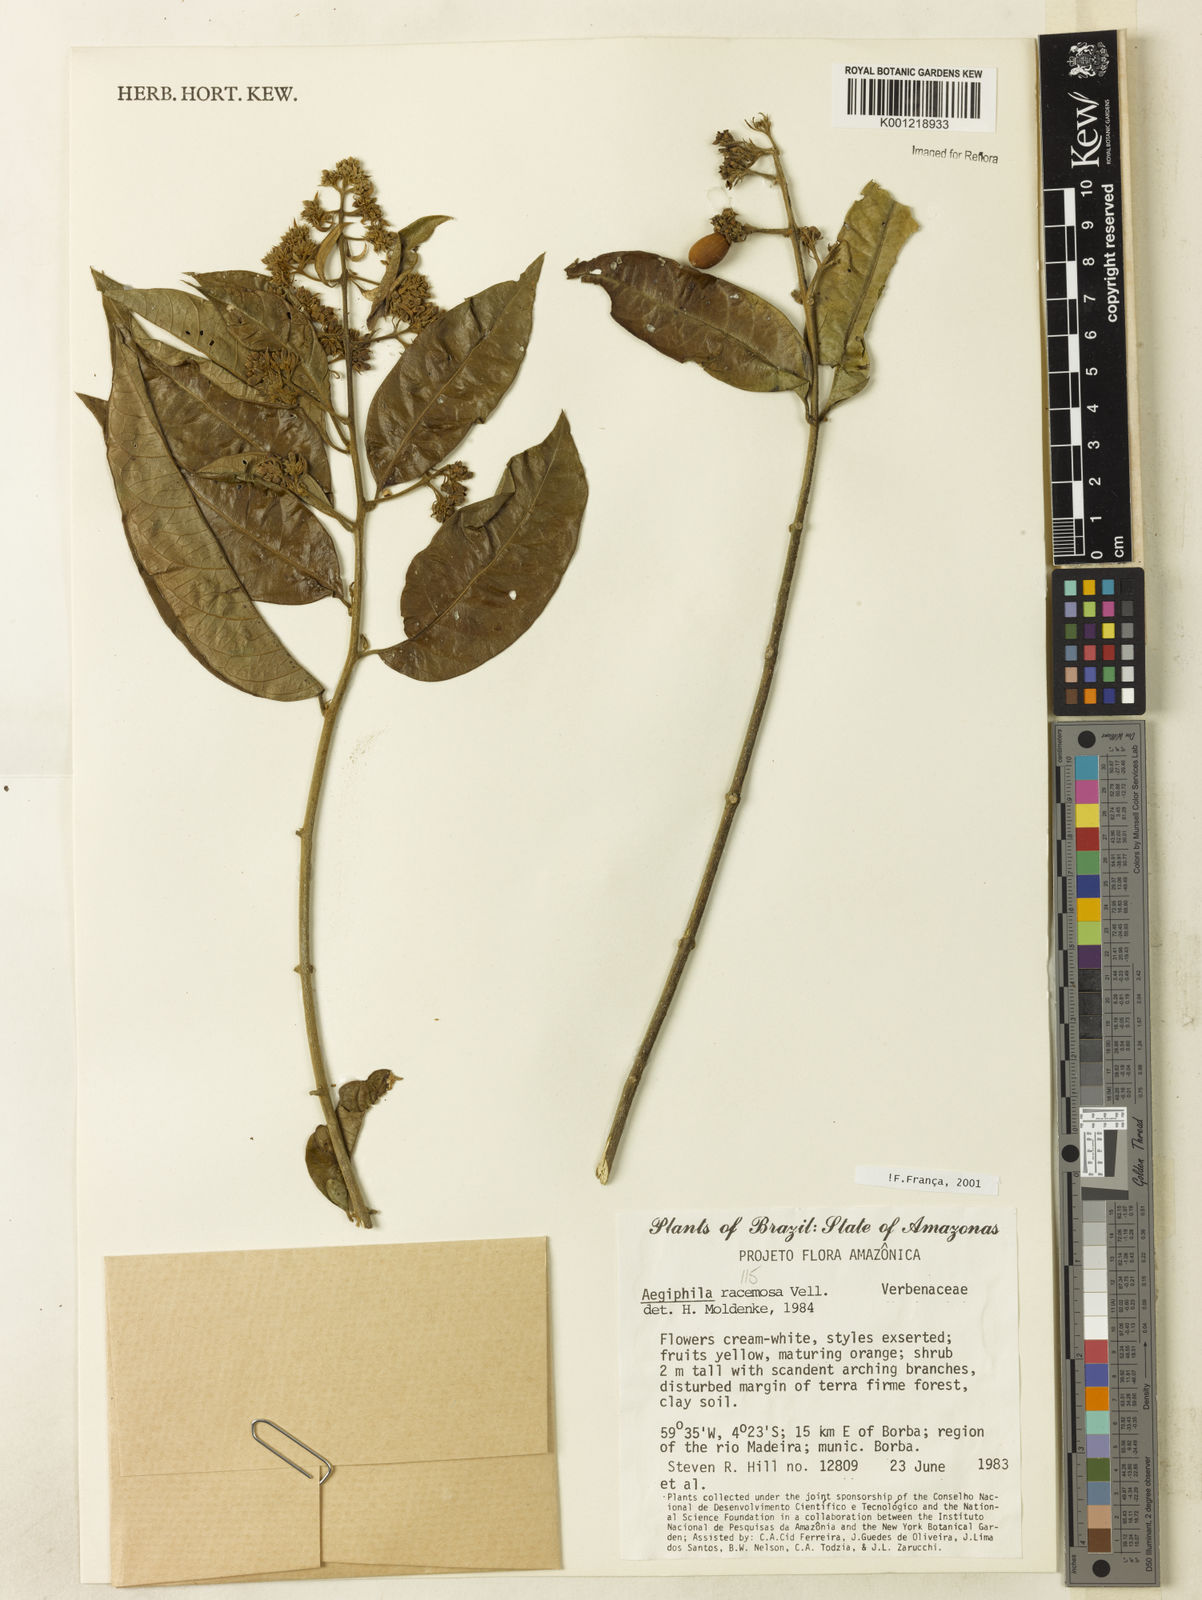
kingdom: Plantae
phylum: Tracheophyta
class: Magnoliopsida
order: Lamiales
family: Lamiaceae
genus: Aegiphila
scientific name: Aegiphila racemosa
